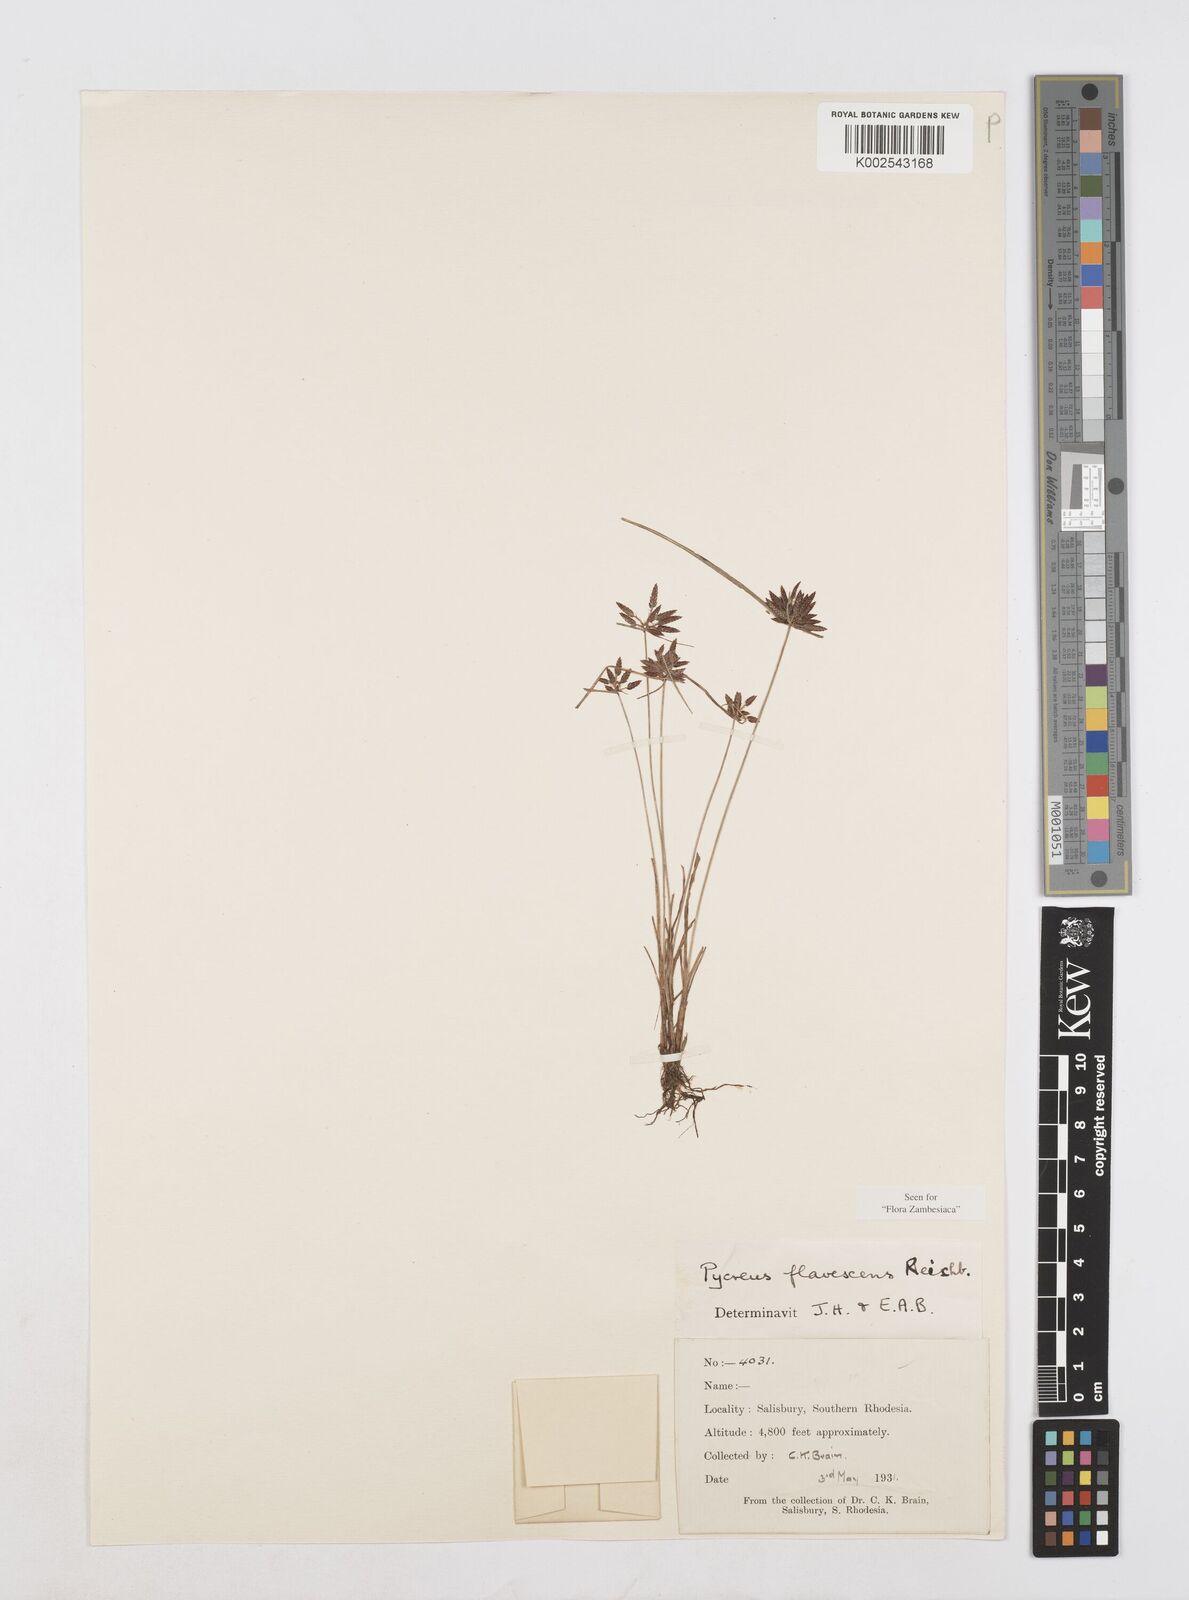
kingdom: Plantae
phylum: Tracheophyta
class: Liliopsida
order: Poales
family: Cyperaceae
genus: Cyperus
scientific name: Cyperus flavescens
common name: Yellow galingale
